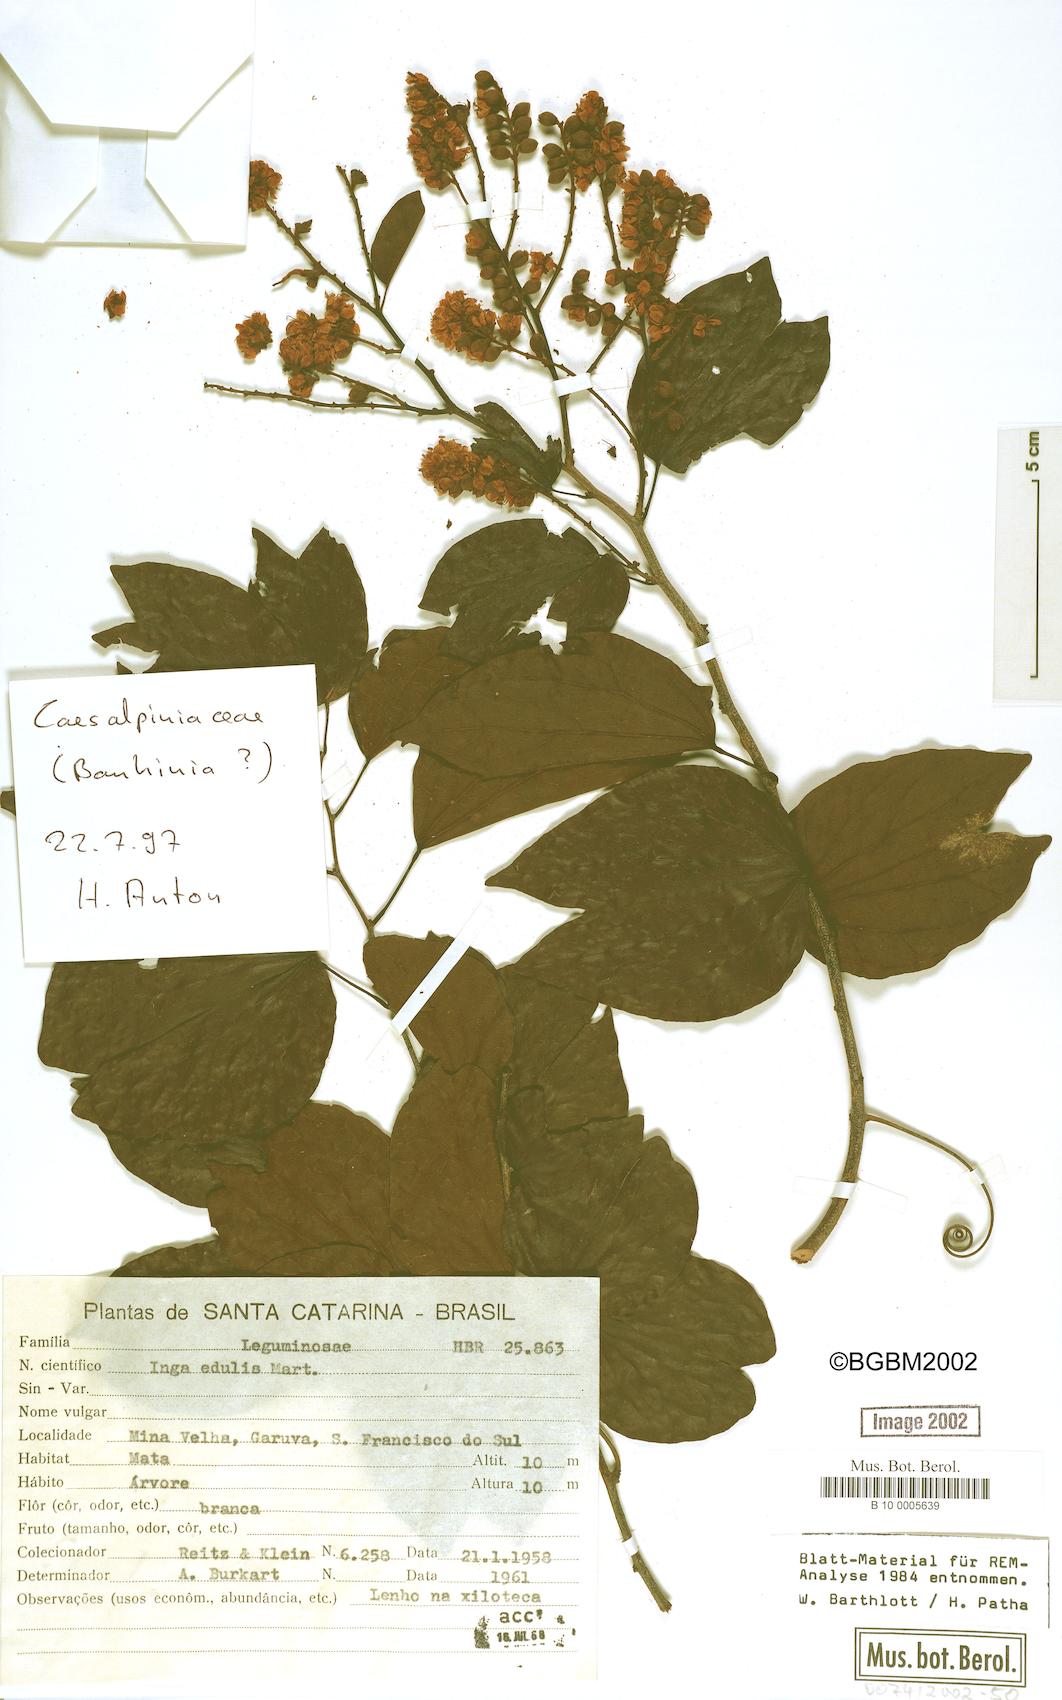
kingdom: Plantae
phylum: Tracheophyta
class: Magnoliopsida
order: Fabales
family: Fabaceae
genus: Inga
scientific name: Inga edulis
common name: Ice cream bean
